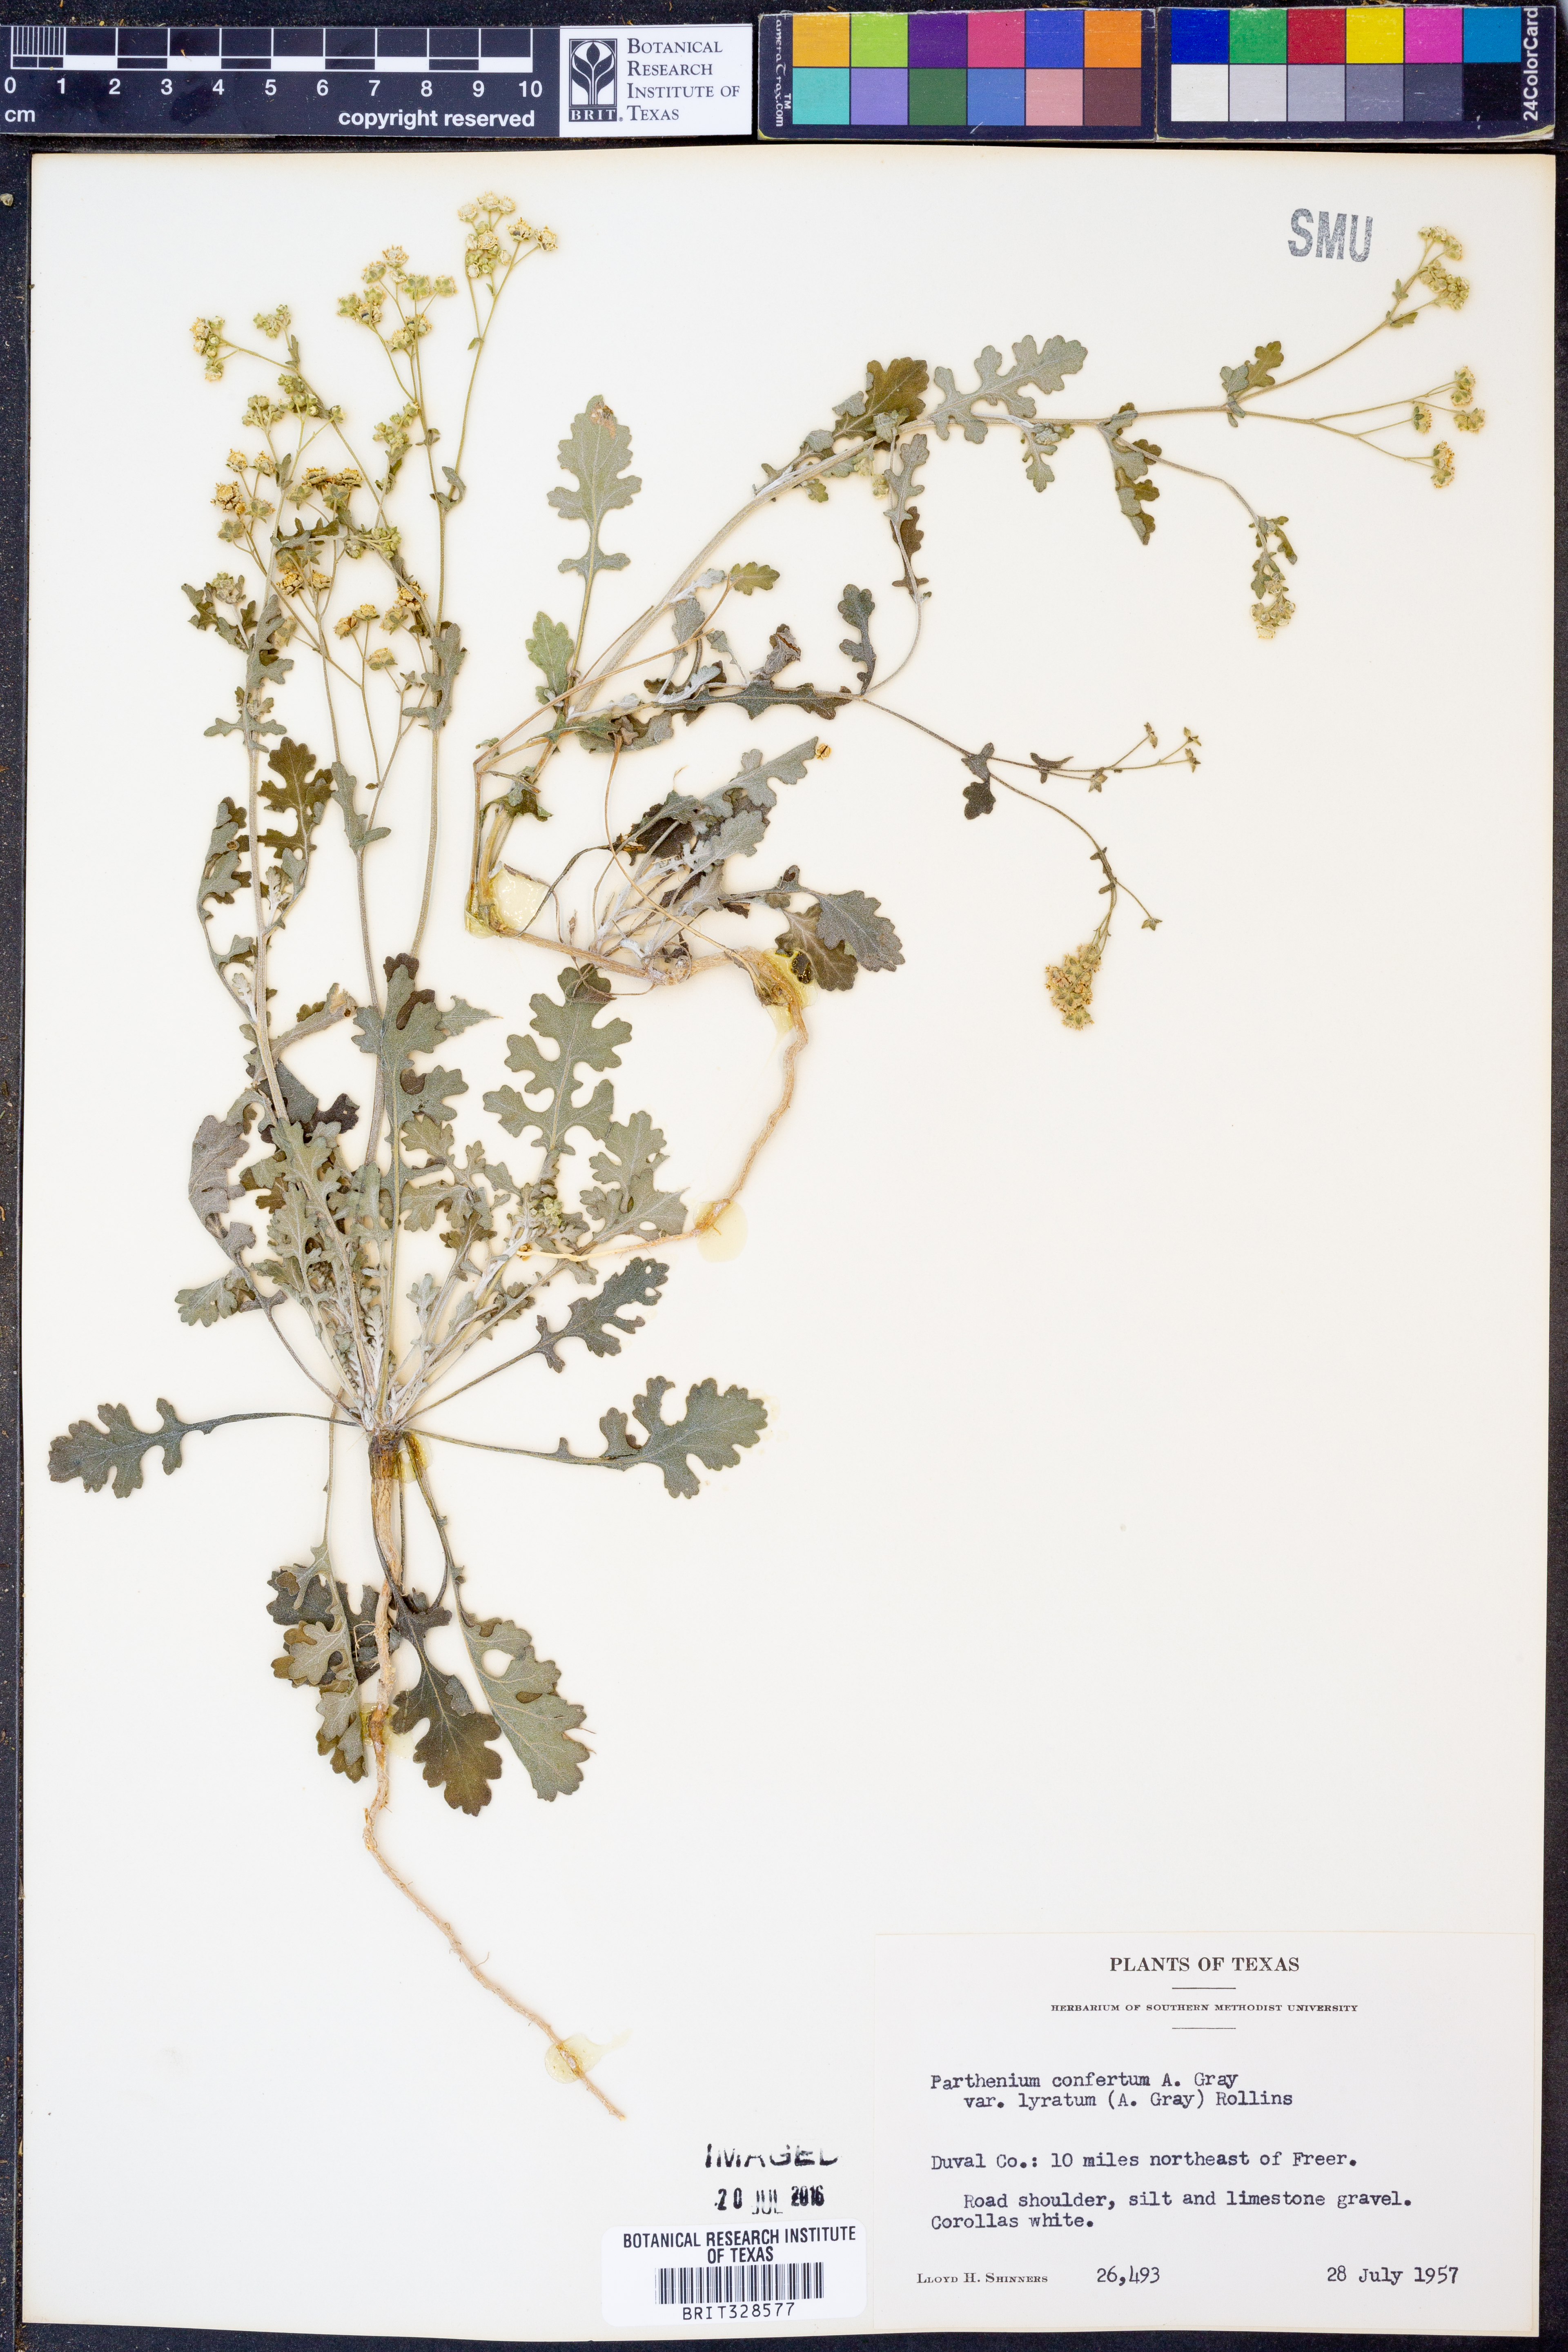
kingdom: Plantae
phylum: Tracheophyta
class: Magnoliopsida
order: Asterales
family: Asteraceae
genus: Parthenium
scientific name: Parthenium confertum
